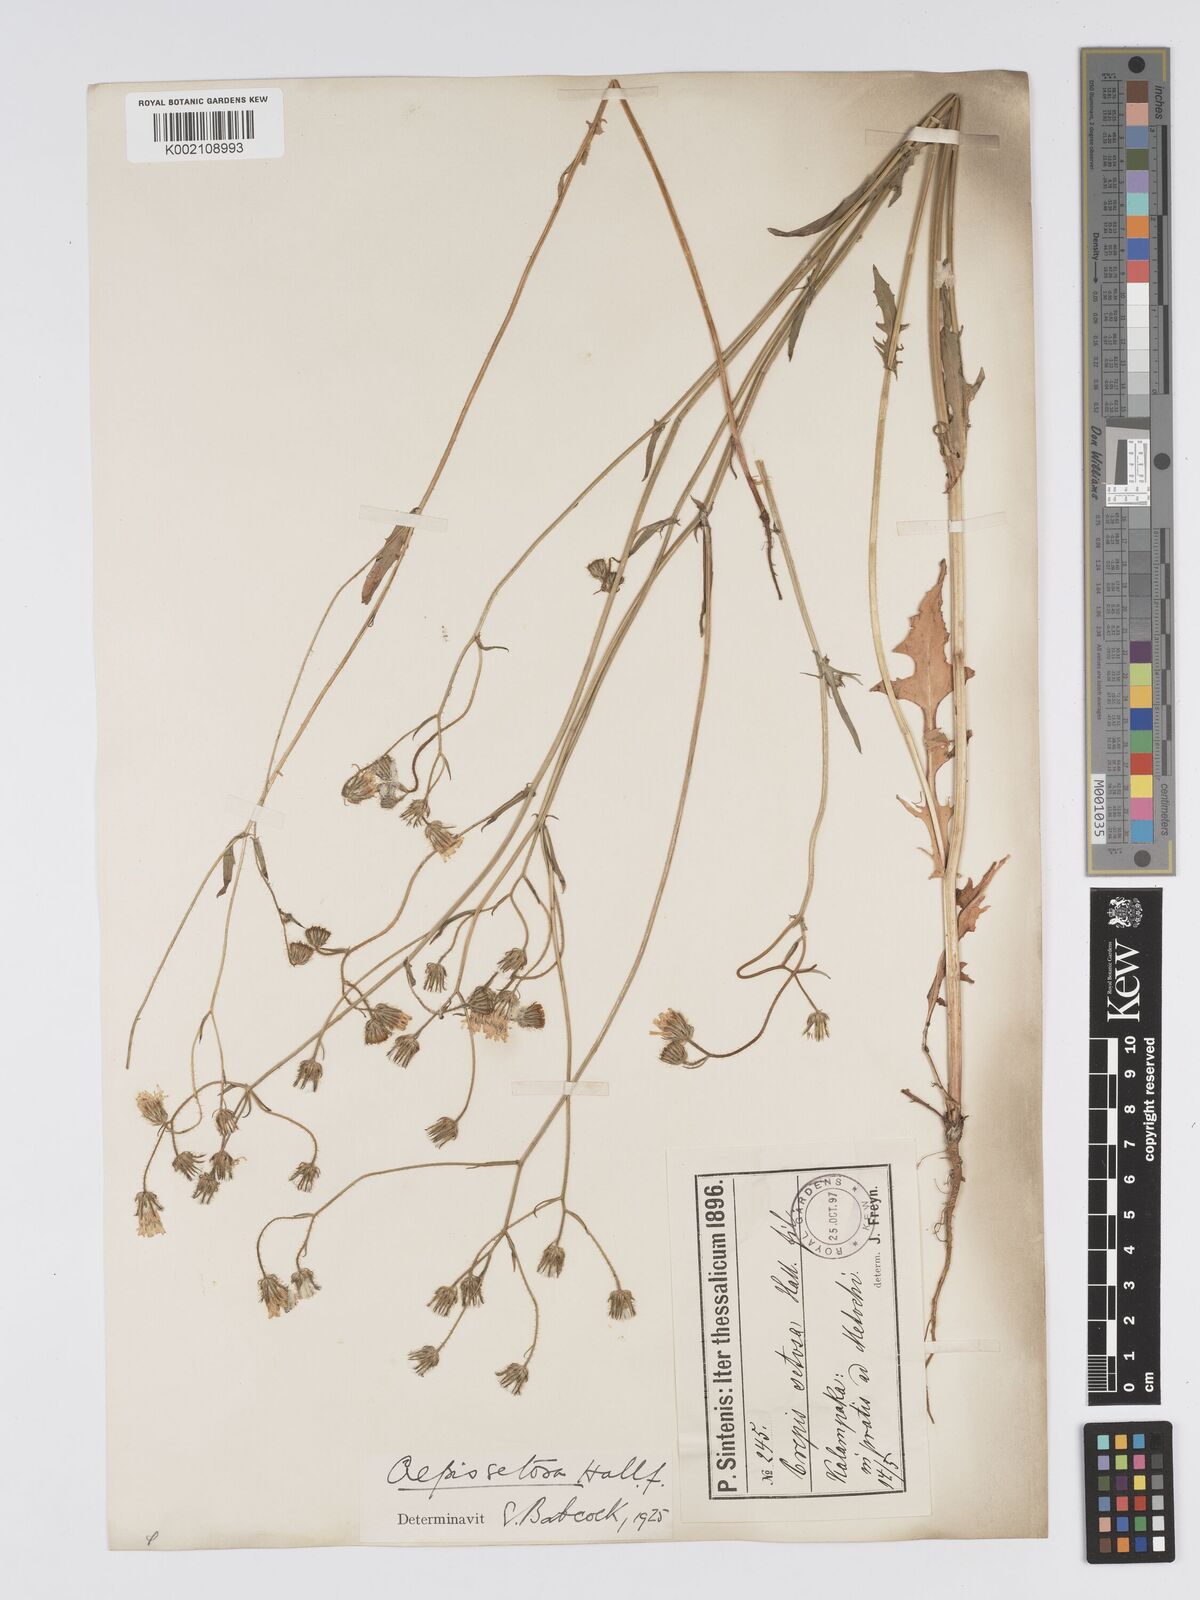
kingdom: Plantae
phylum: Tracheophyta
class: Magnoliopsida
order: Asterales
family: Asteraceae
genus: Crepis
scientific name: Crepis setosa
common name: Bristly hawk's-beard
